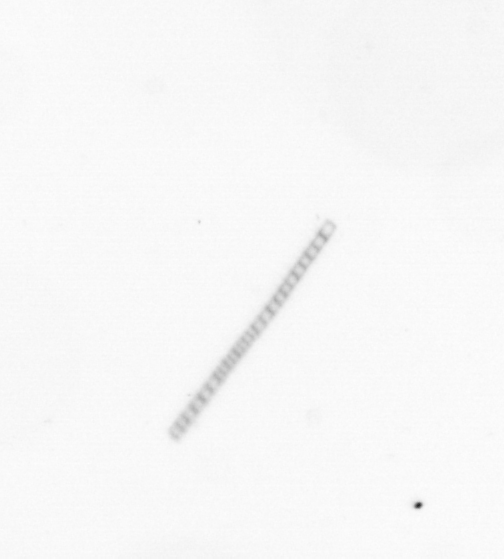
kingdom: Chromista
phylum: Ochrophyta
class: Bacillariophyceae
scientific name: Bacillariophyceae
